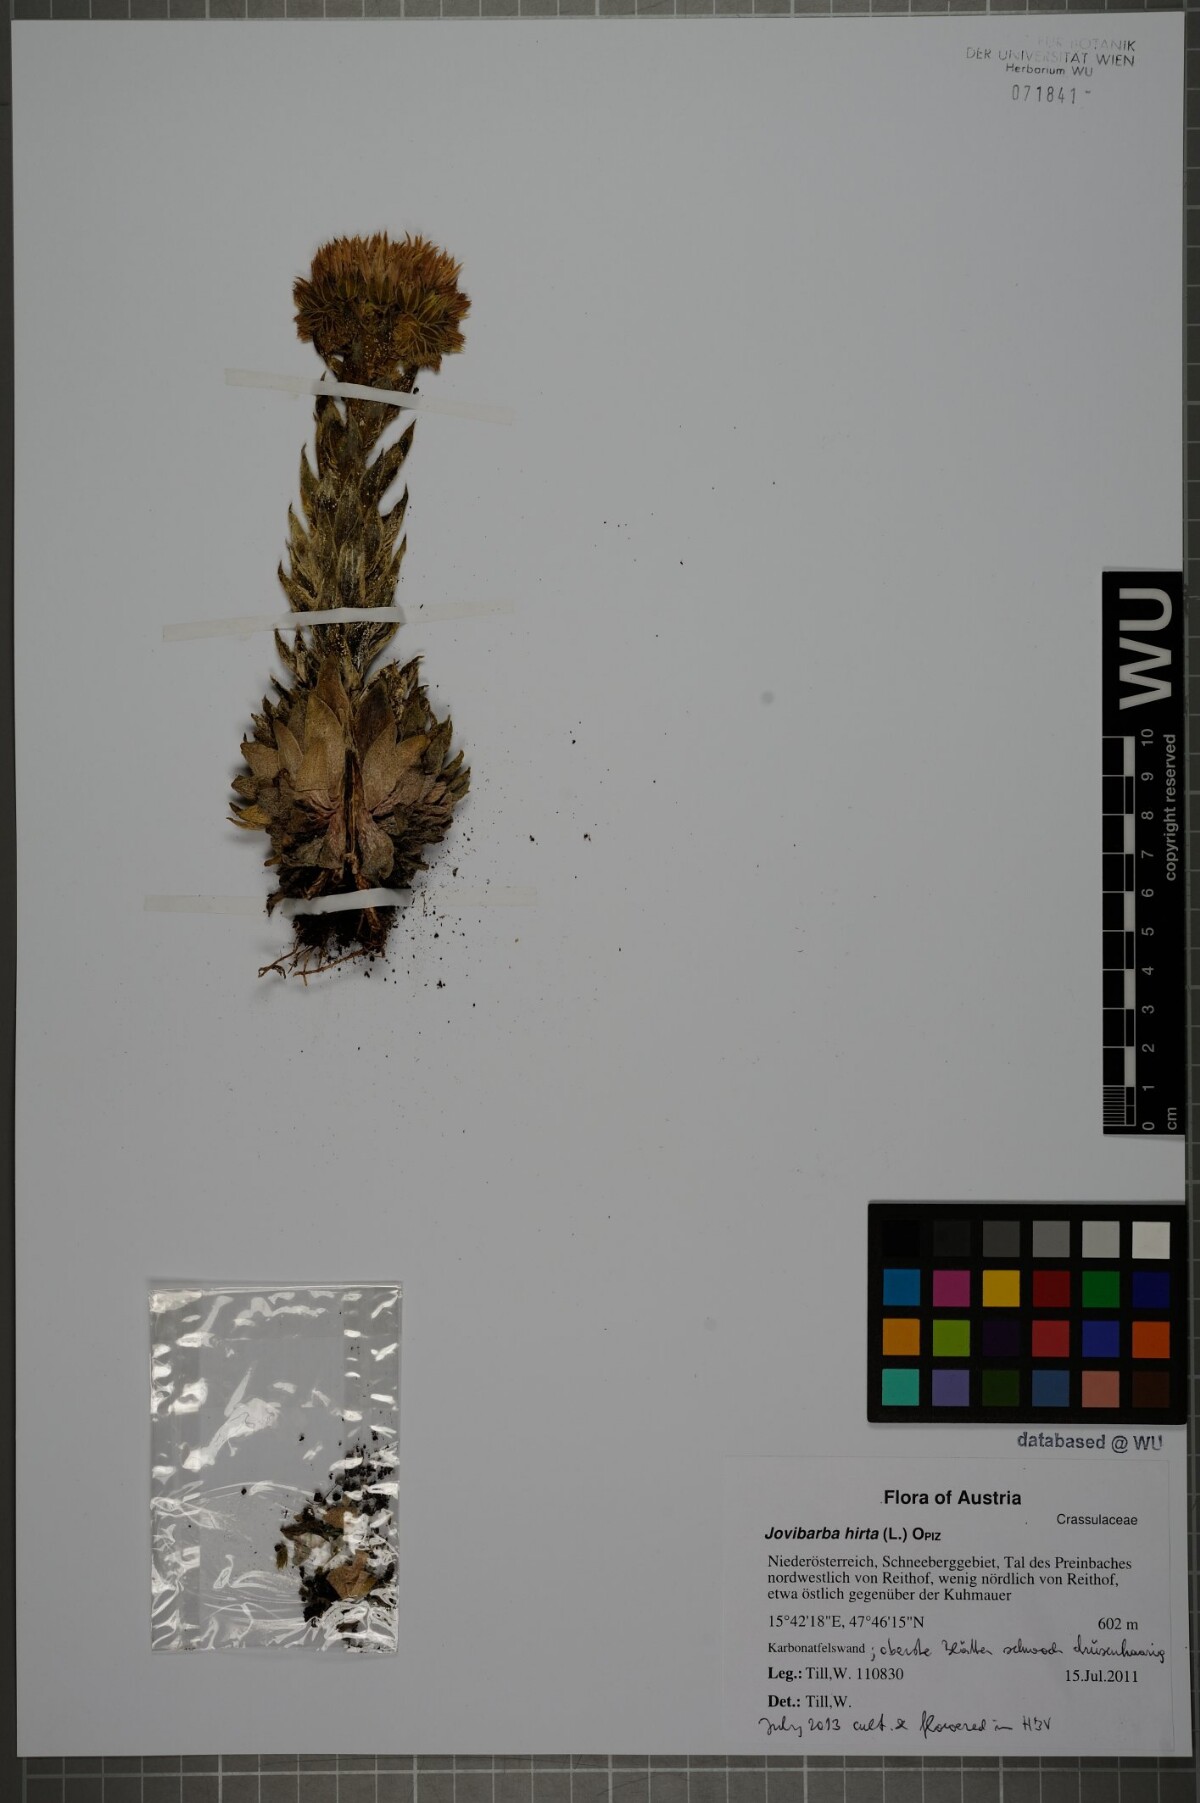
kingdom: Plantae
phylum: Tracheophyta
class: Magnoliopsida
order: Saxifragales
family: Crassulaceae
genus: Sempervivum
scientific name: Sempervivum globiferum
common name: Rolling hen-and-chicks
